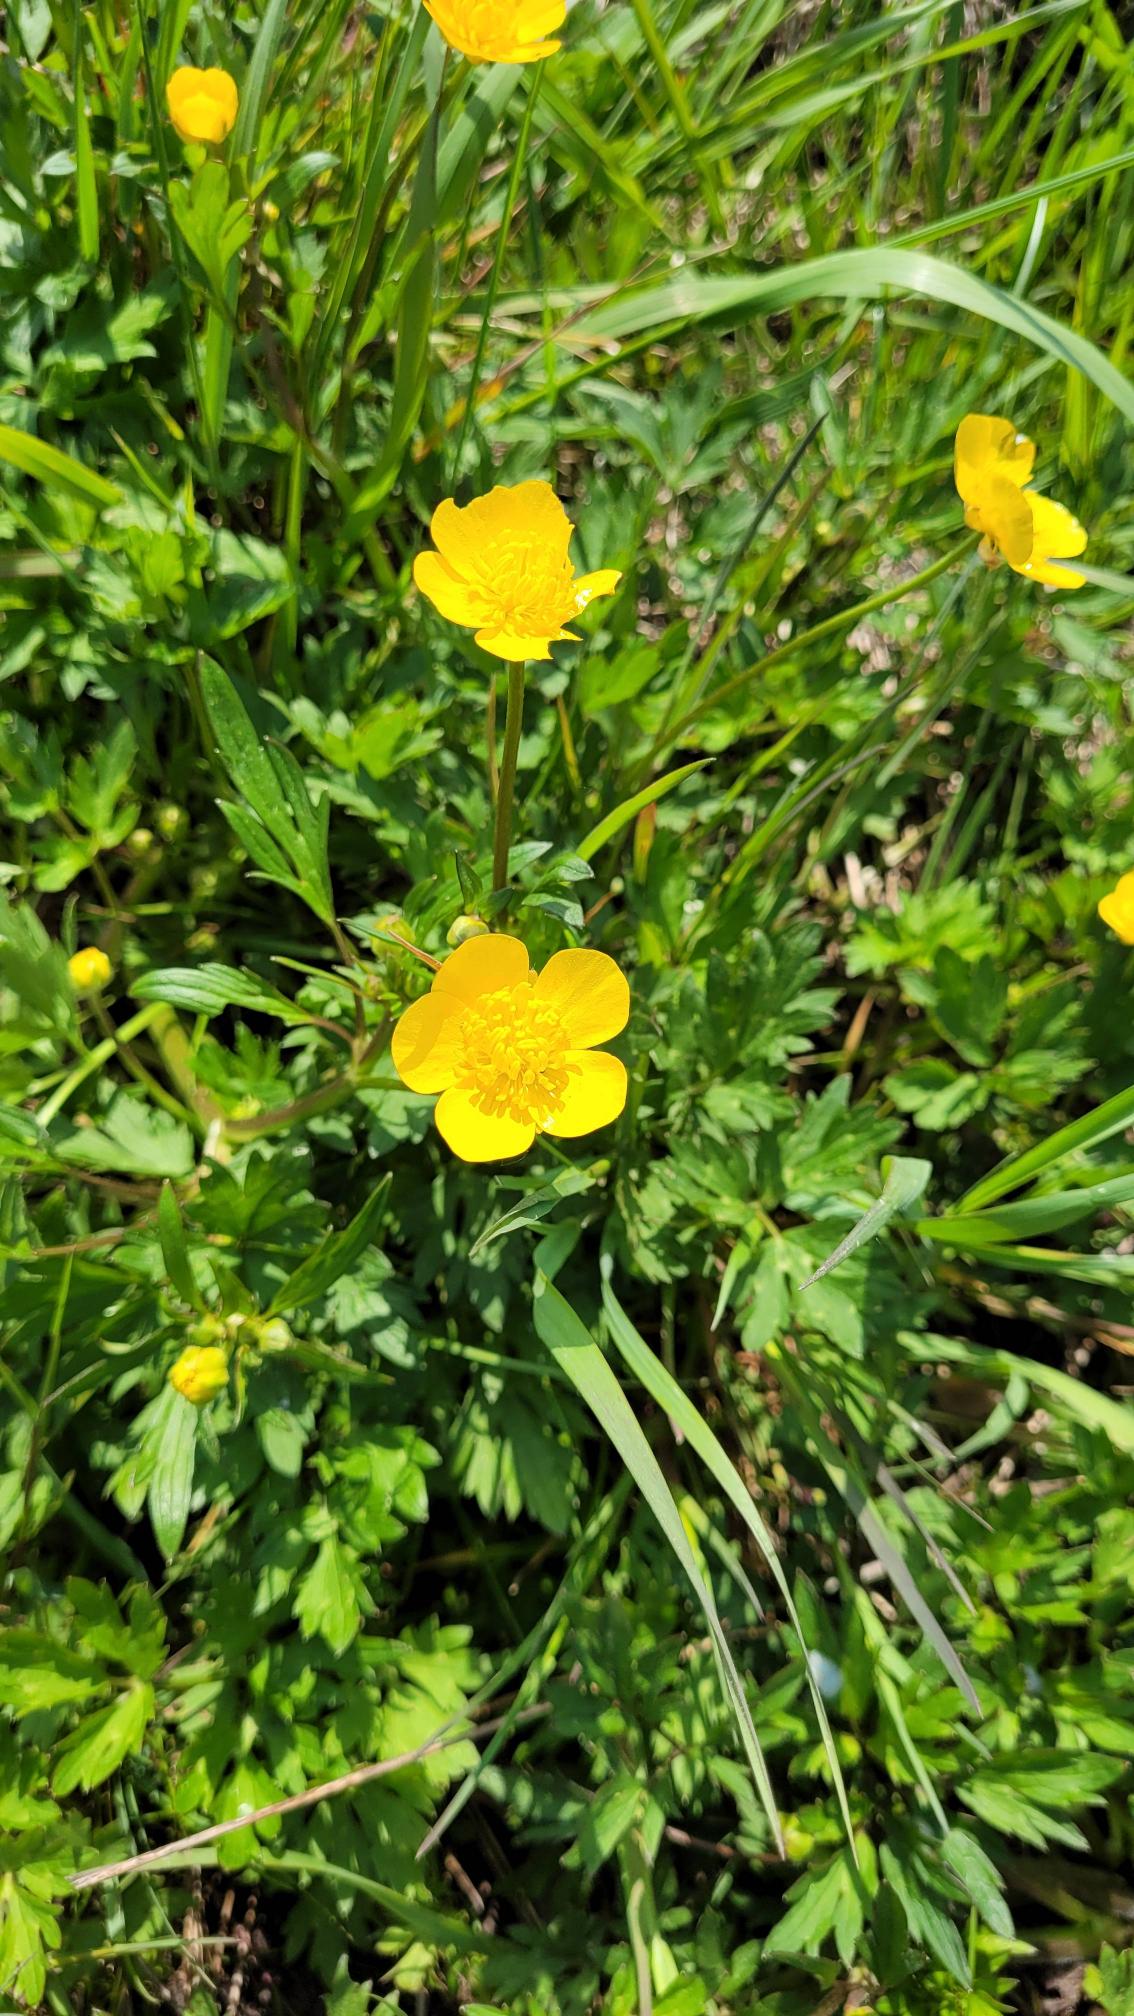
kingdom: Plantae
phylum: Tracheophyta
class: Magnoliopsida
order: Ranunculales
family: Ranunculaceae
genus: Ranunculus
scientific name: Ranunculus repens
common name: Lav ranunkel
